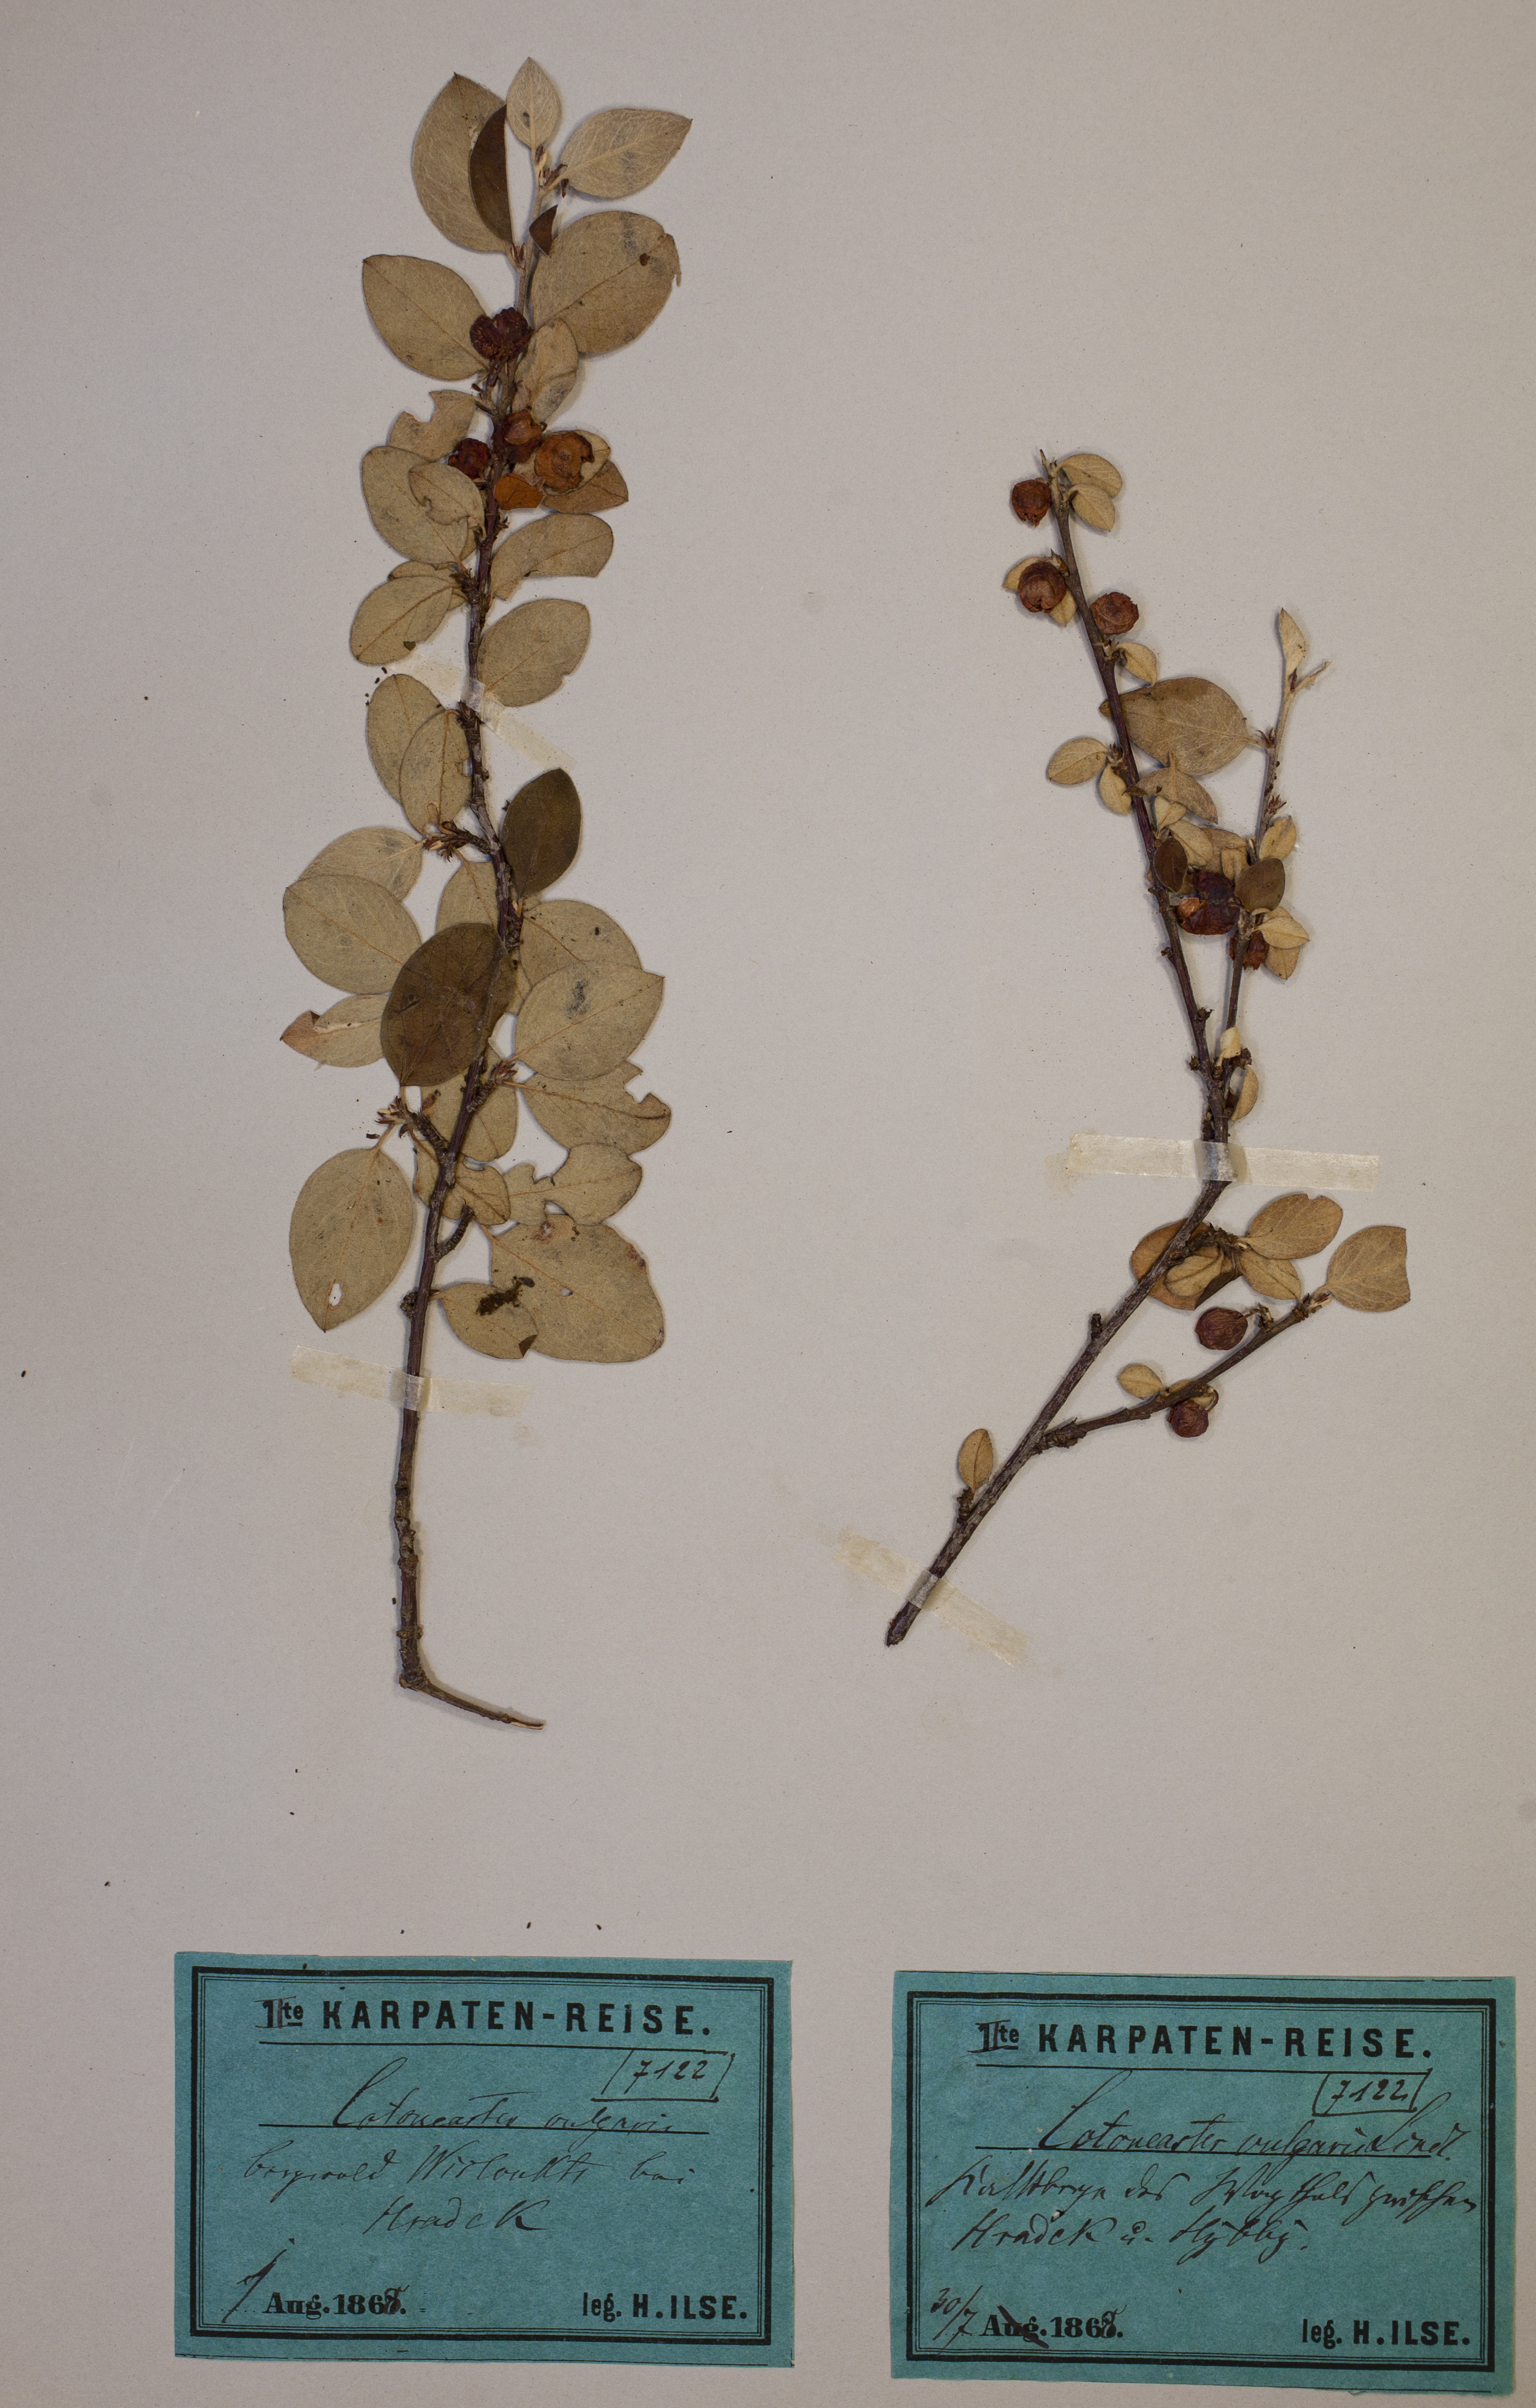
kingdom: Plantae
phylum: Tracheophyta
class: Magnoliopsida
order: Rosales
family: Rosaceae
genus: Cotoneaster
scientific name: Cotoneaster integerrimus
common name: Wild cotoneaster
